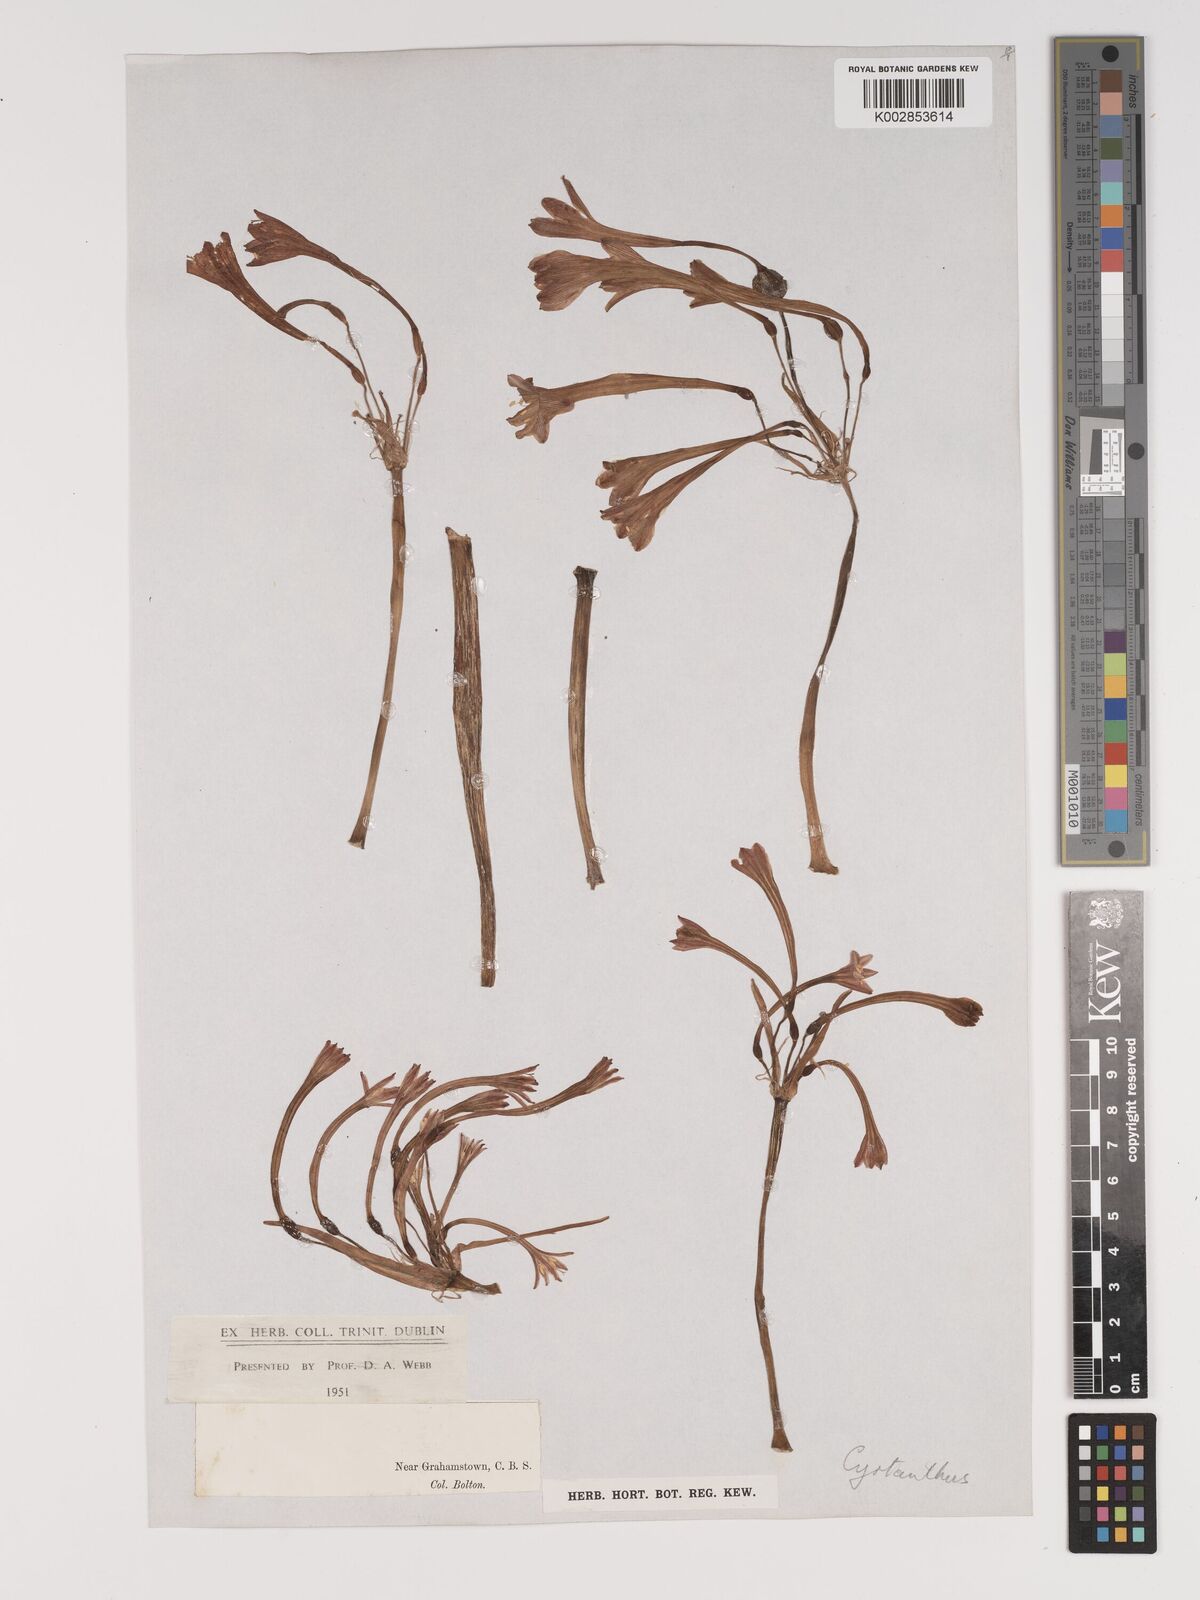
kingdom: Plantae
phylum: Tracheophyta
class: Liliopsida
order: Asparagales
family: Amaryllidaceae
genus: Cyrtanthus
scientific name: Cyrtanthus
